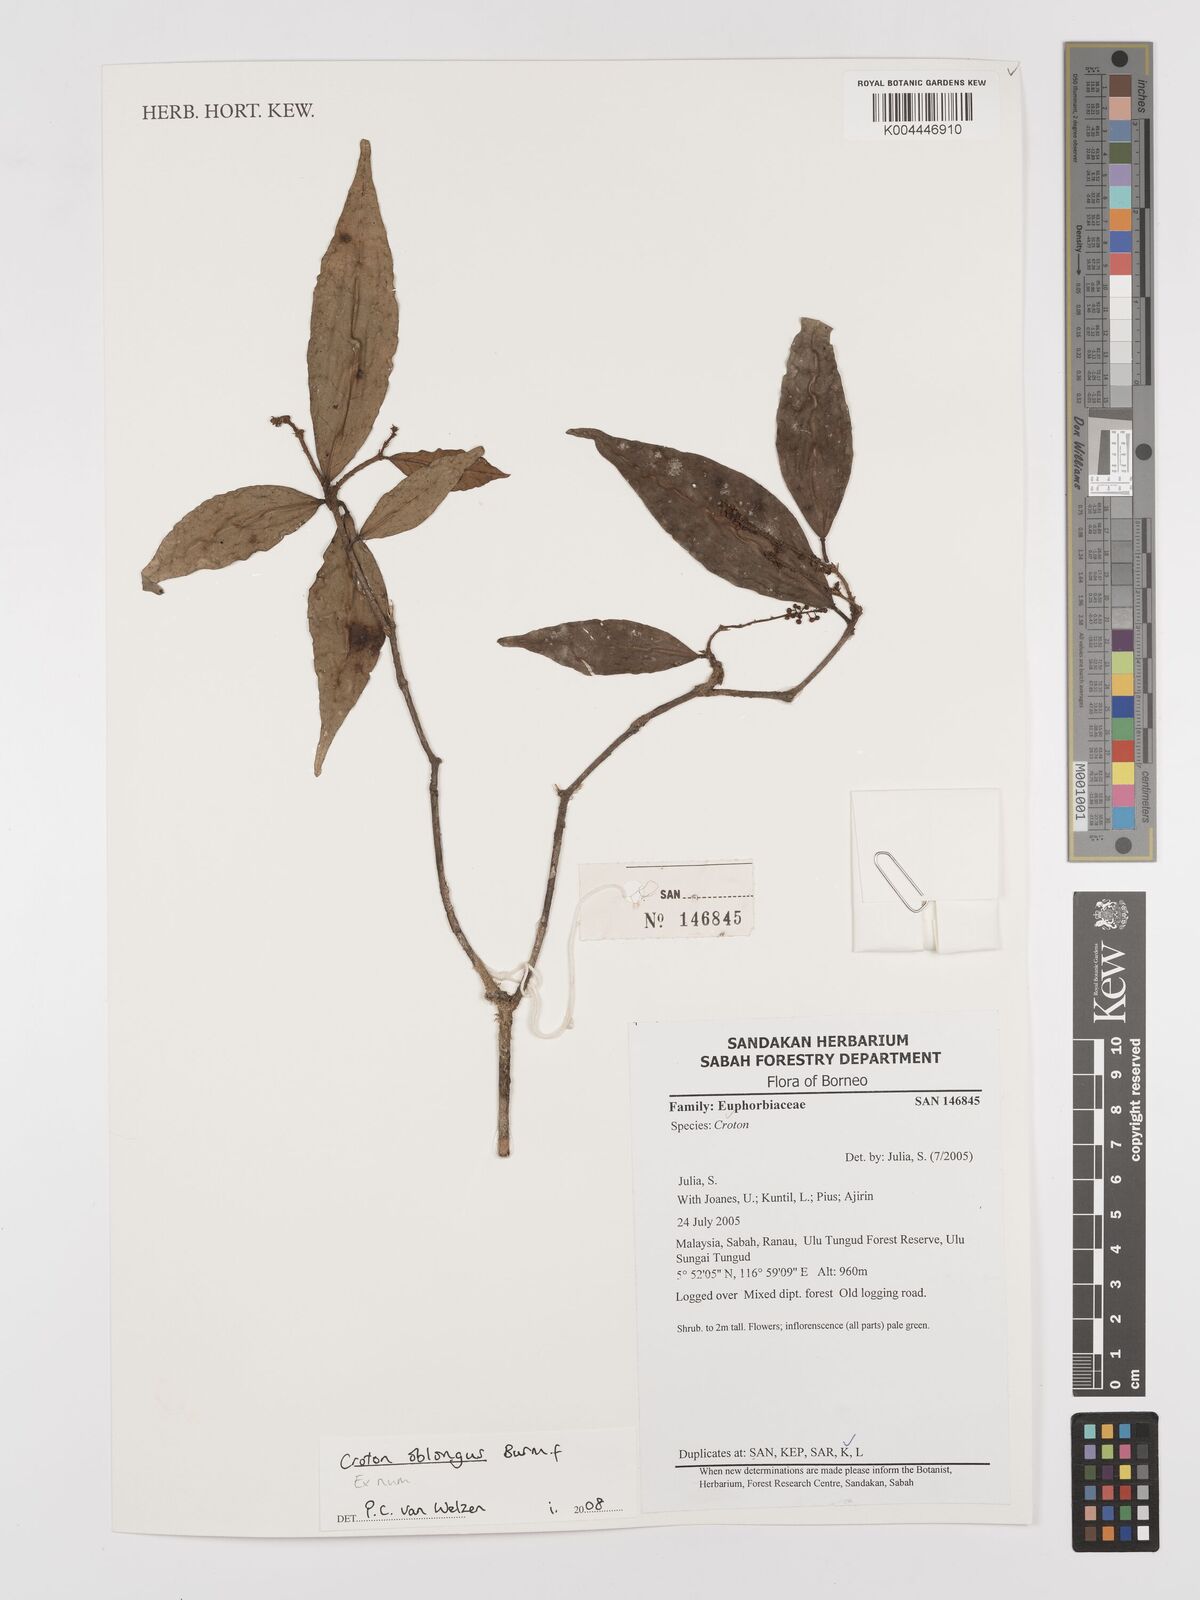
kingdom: Plantae
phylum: Tracheophyta
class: Magnoliopsida
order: Malpighiales
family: Euphorbiaceae
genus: Croton
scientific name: Croton oblongus
